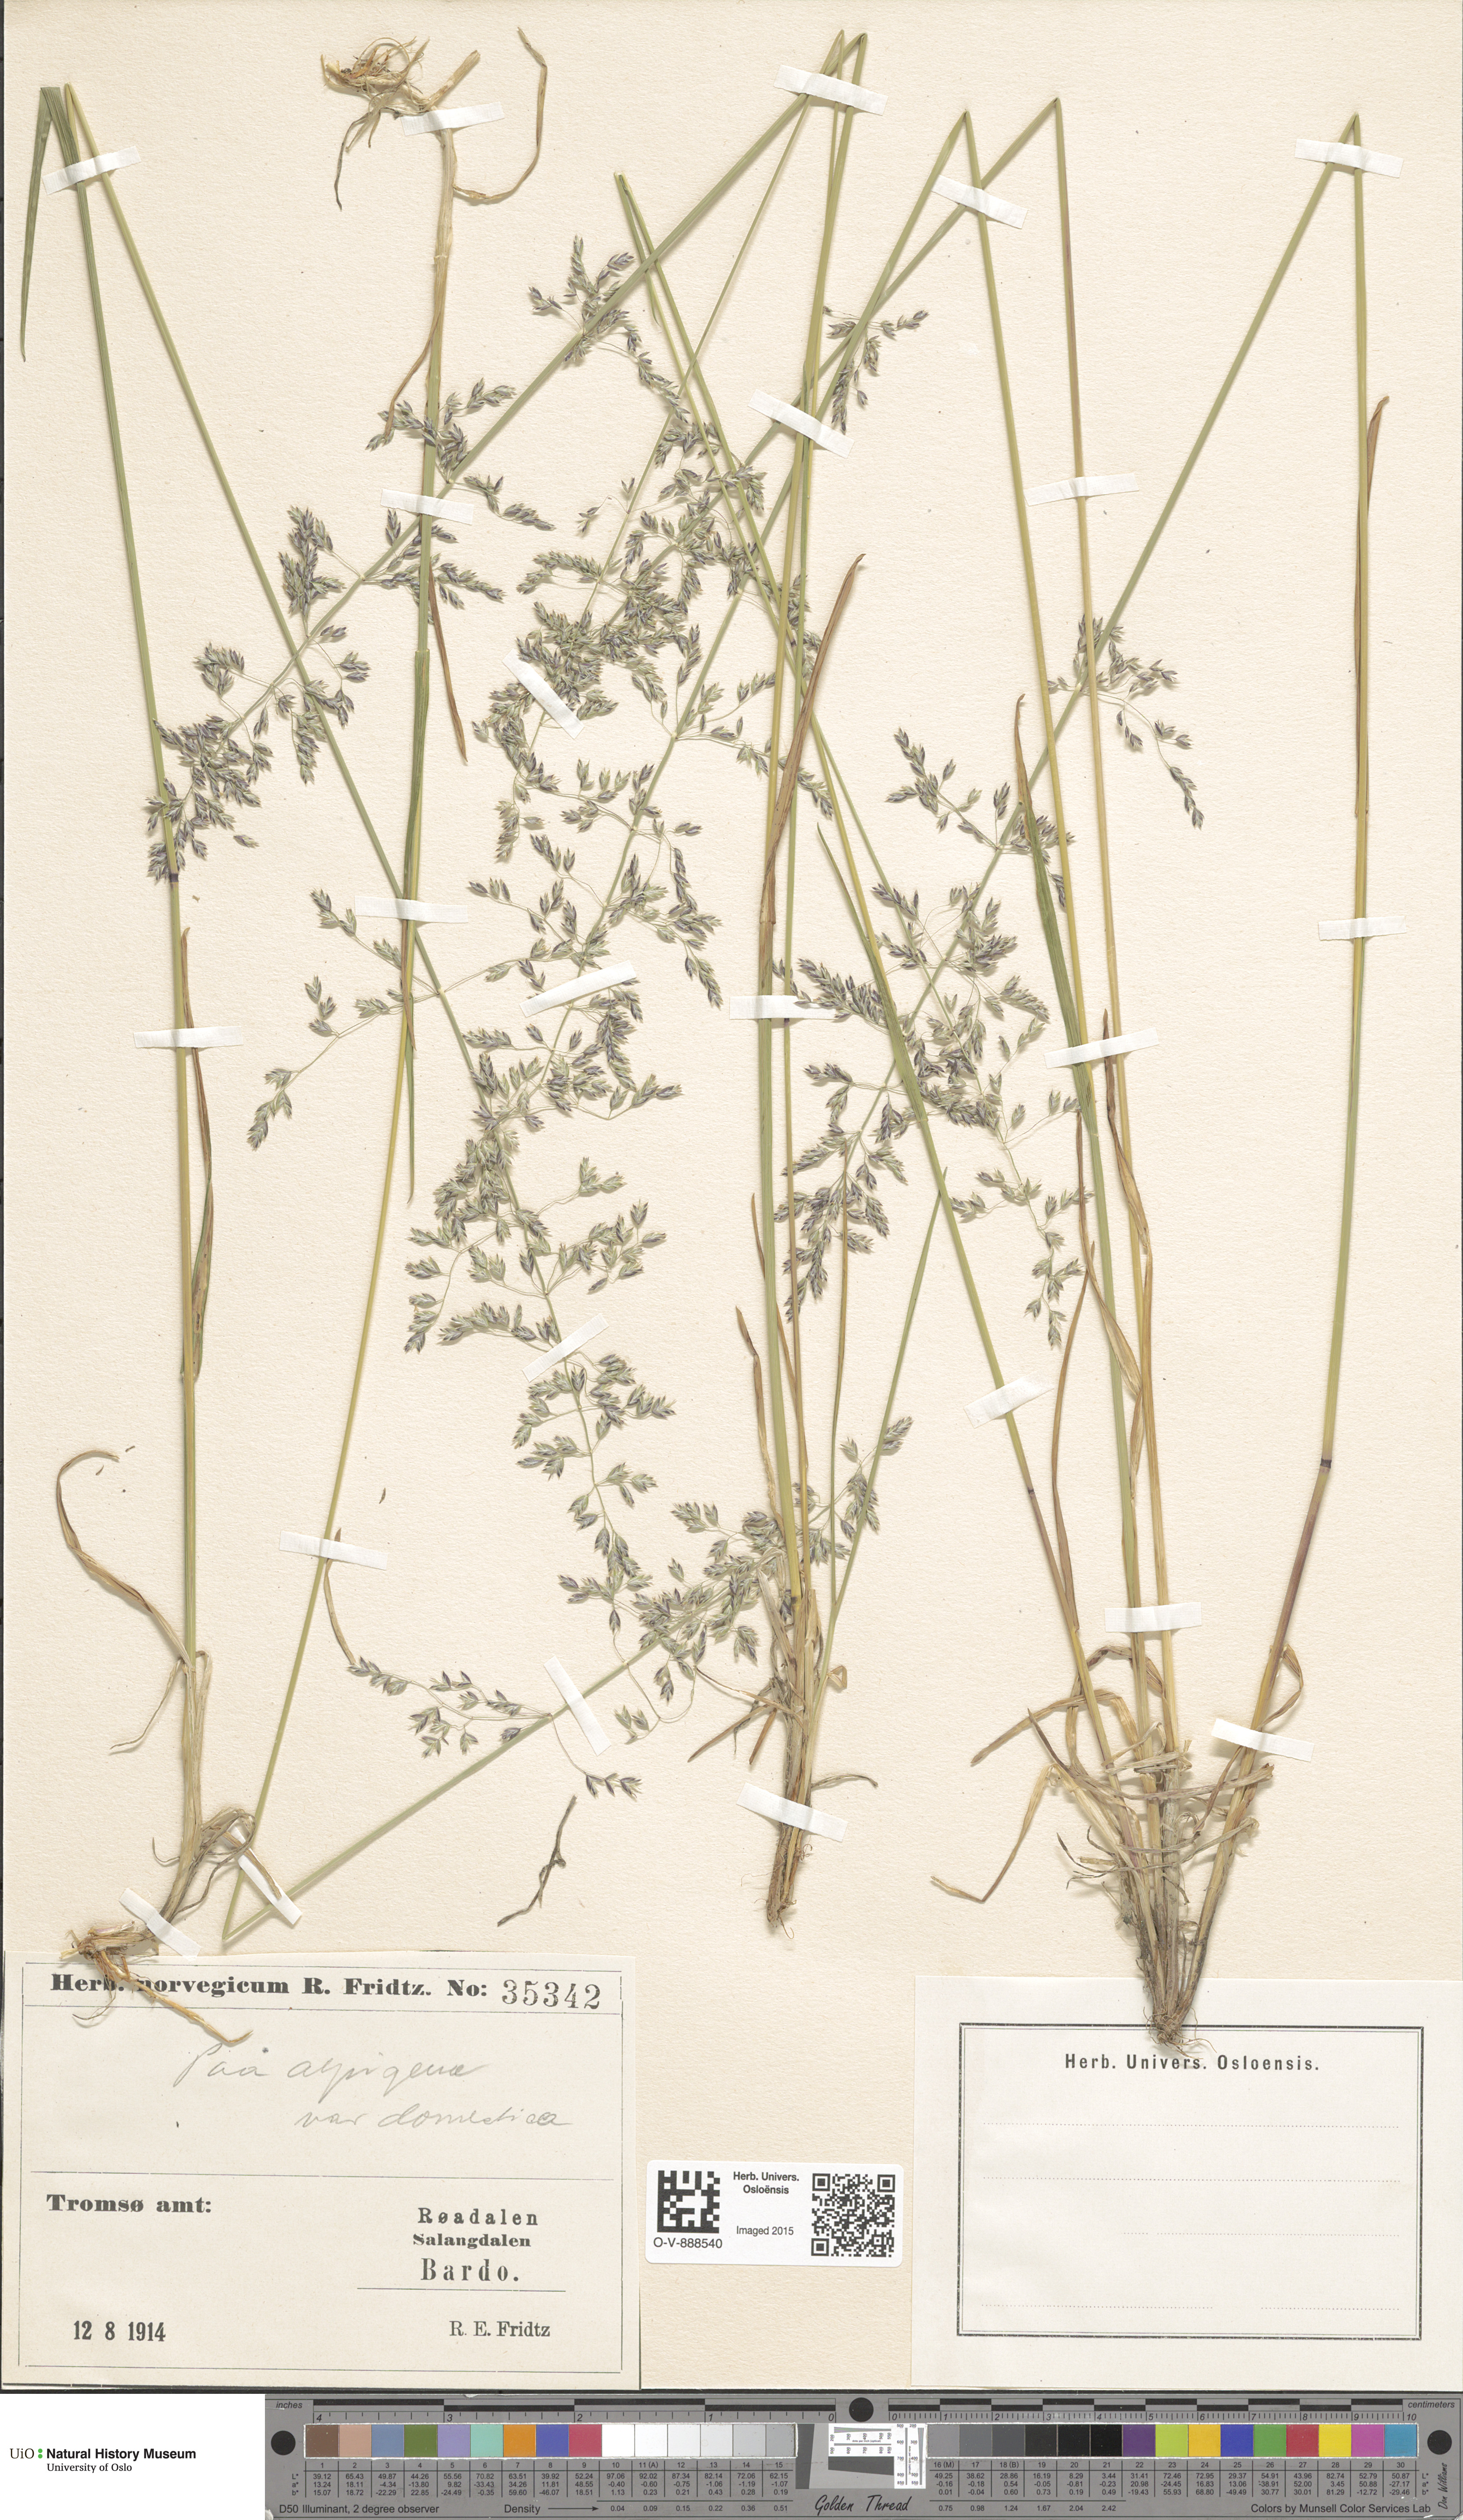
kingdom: Plantae
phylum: Tracheophyta
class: Liliopsida
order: Poales
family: Poaceae
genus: Poa
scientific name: Poa alpigena
